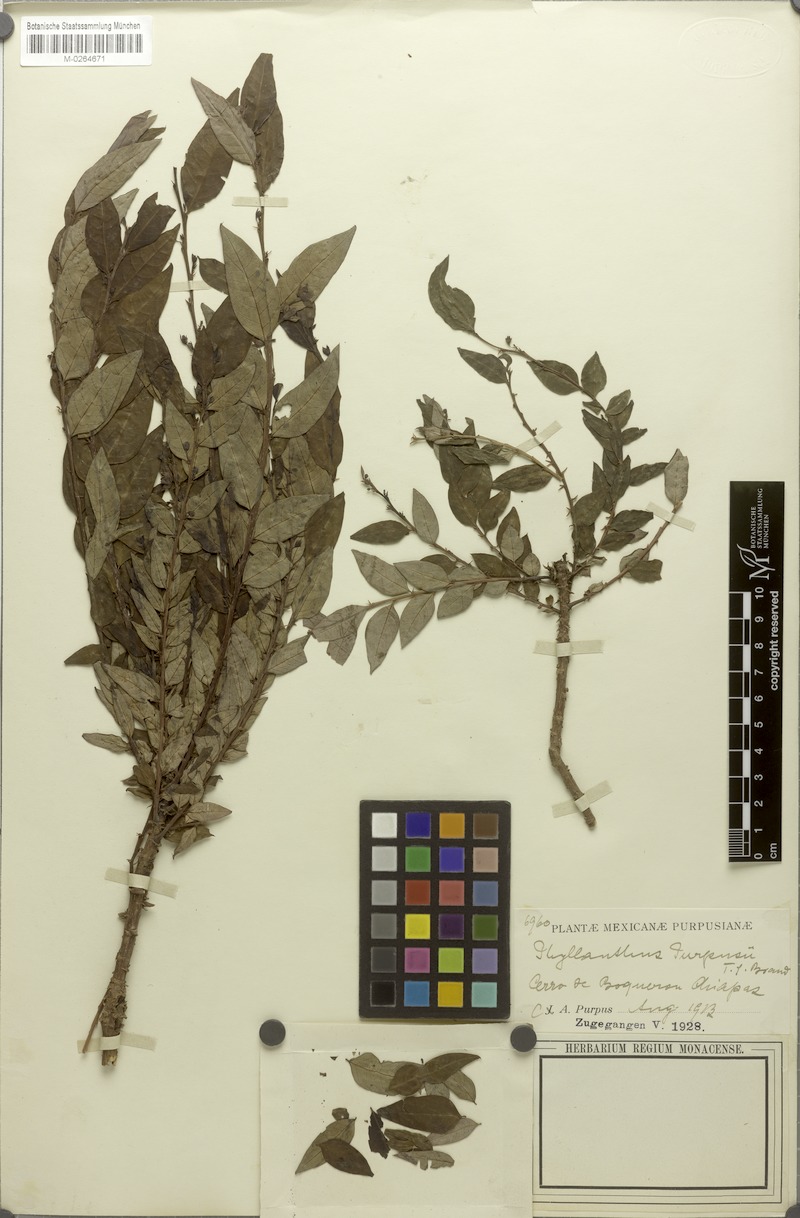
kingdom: Plantae
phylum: Tracheophyta
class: Magnoliopsida
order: Malpighiales
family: Phyllanthaceae
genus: Phyllanthus
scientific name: Phyllanthus purpusii
